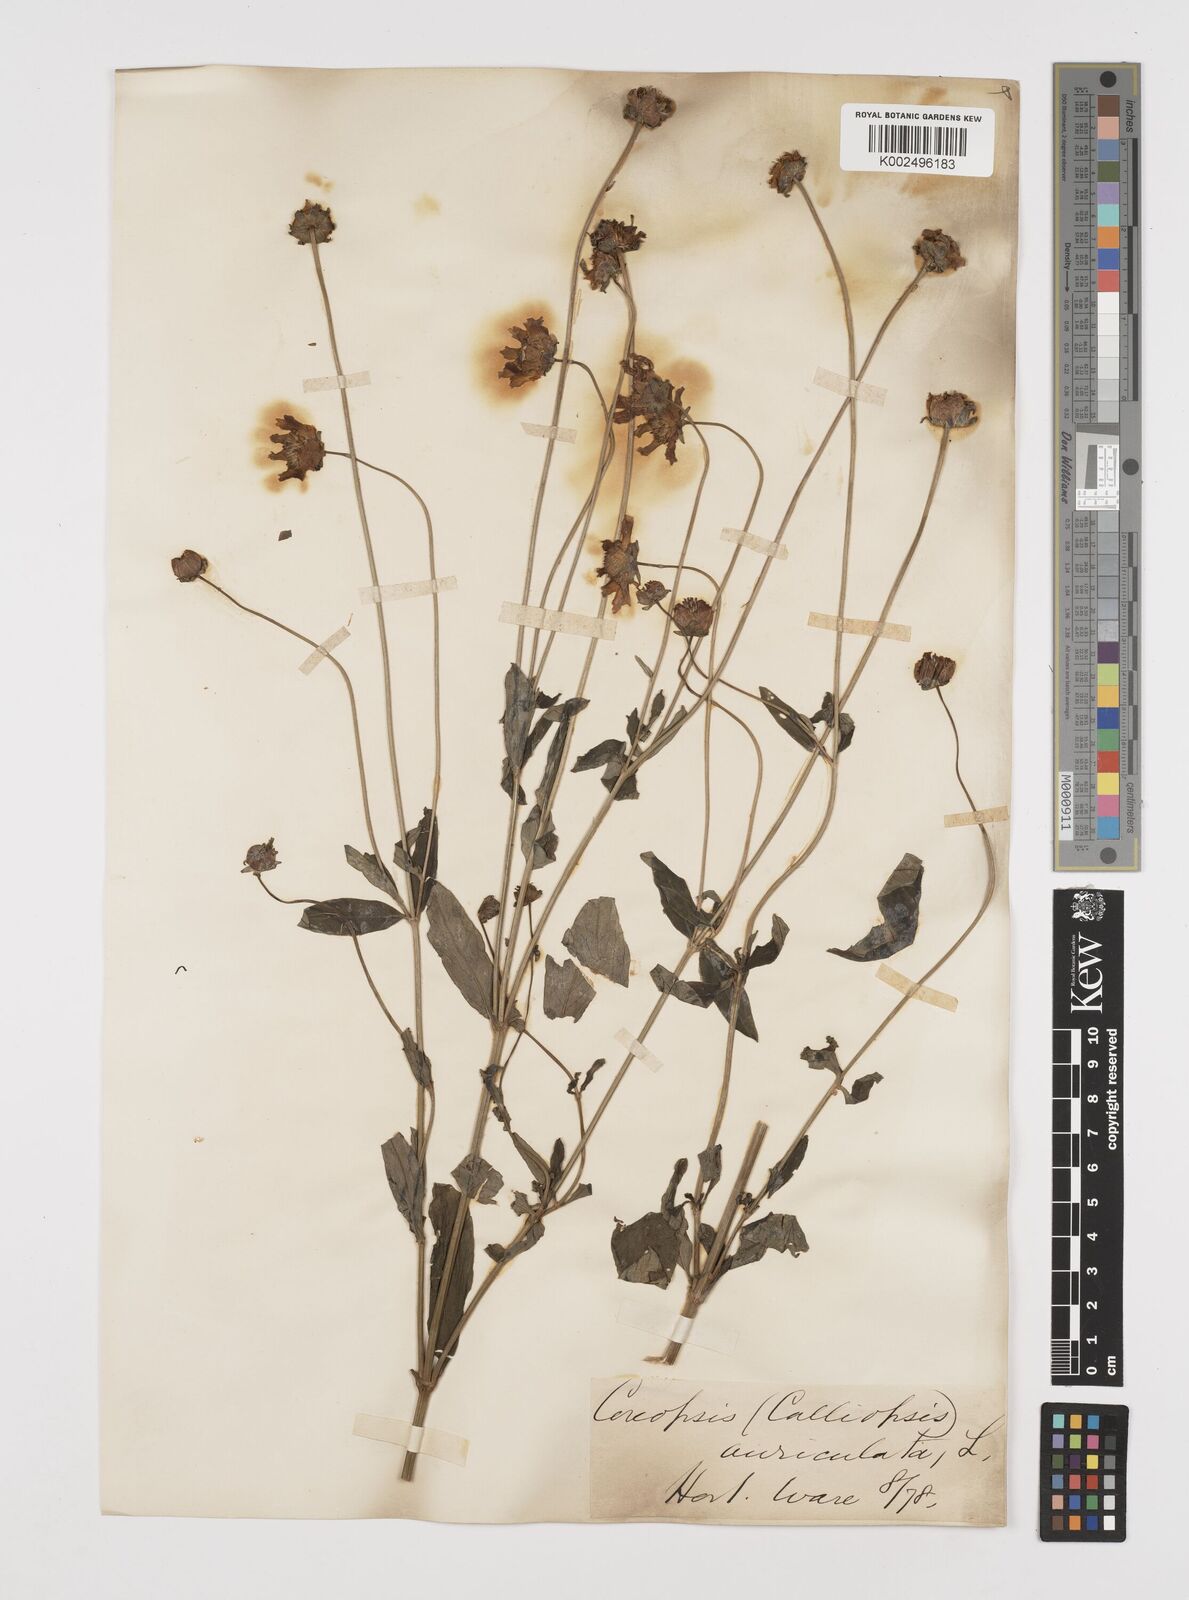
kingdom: Plantae
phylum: Tracheophyta
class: Magnoliopsida
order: Asterales
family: Asteraceae
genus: Coreopsis
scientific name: Coreopsis pubescens
